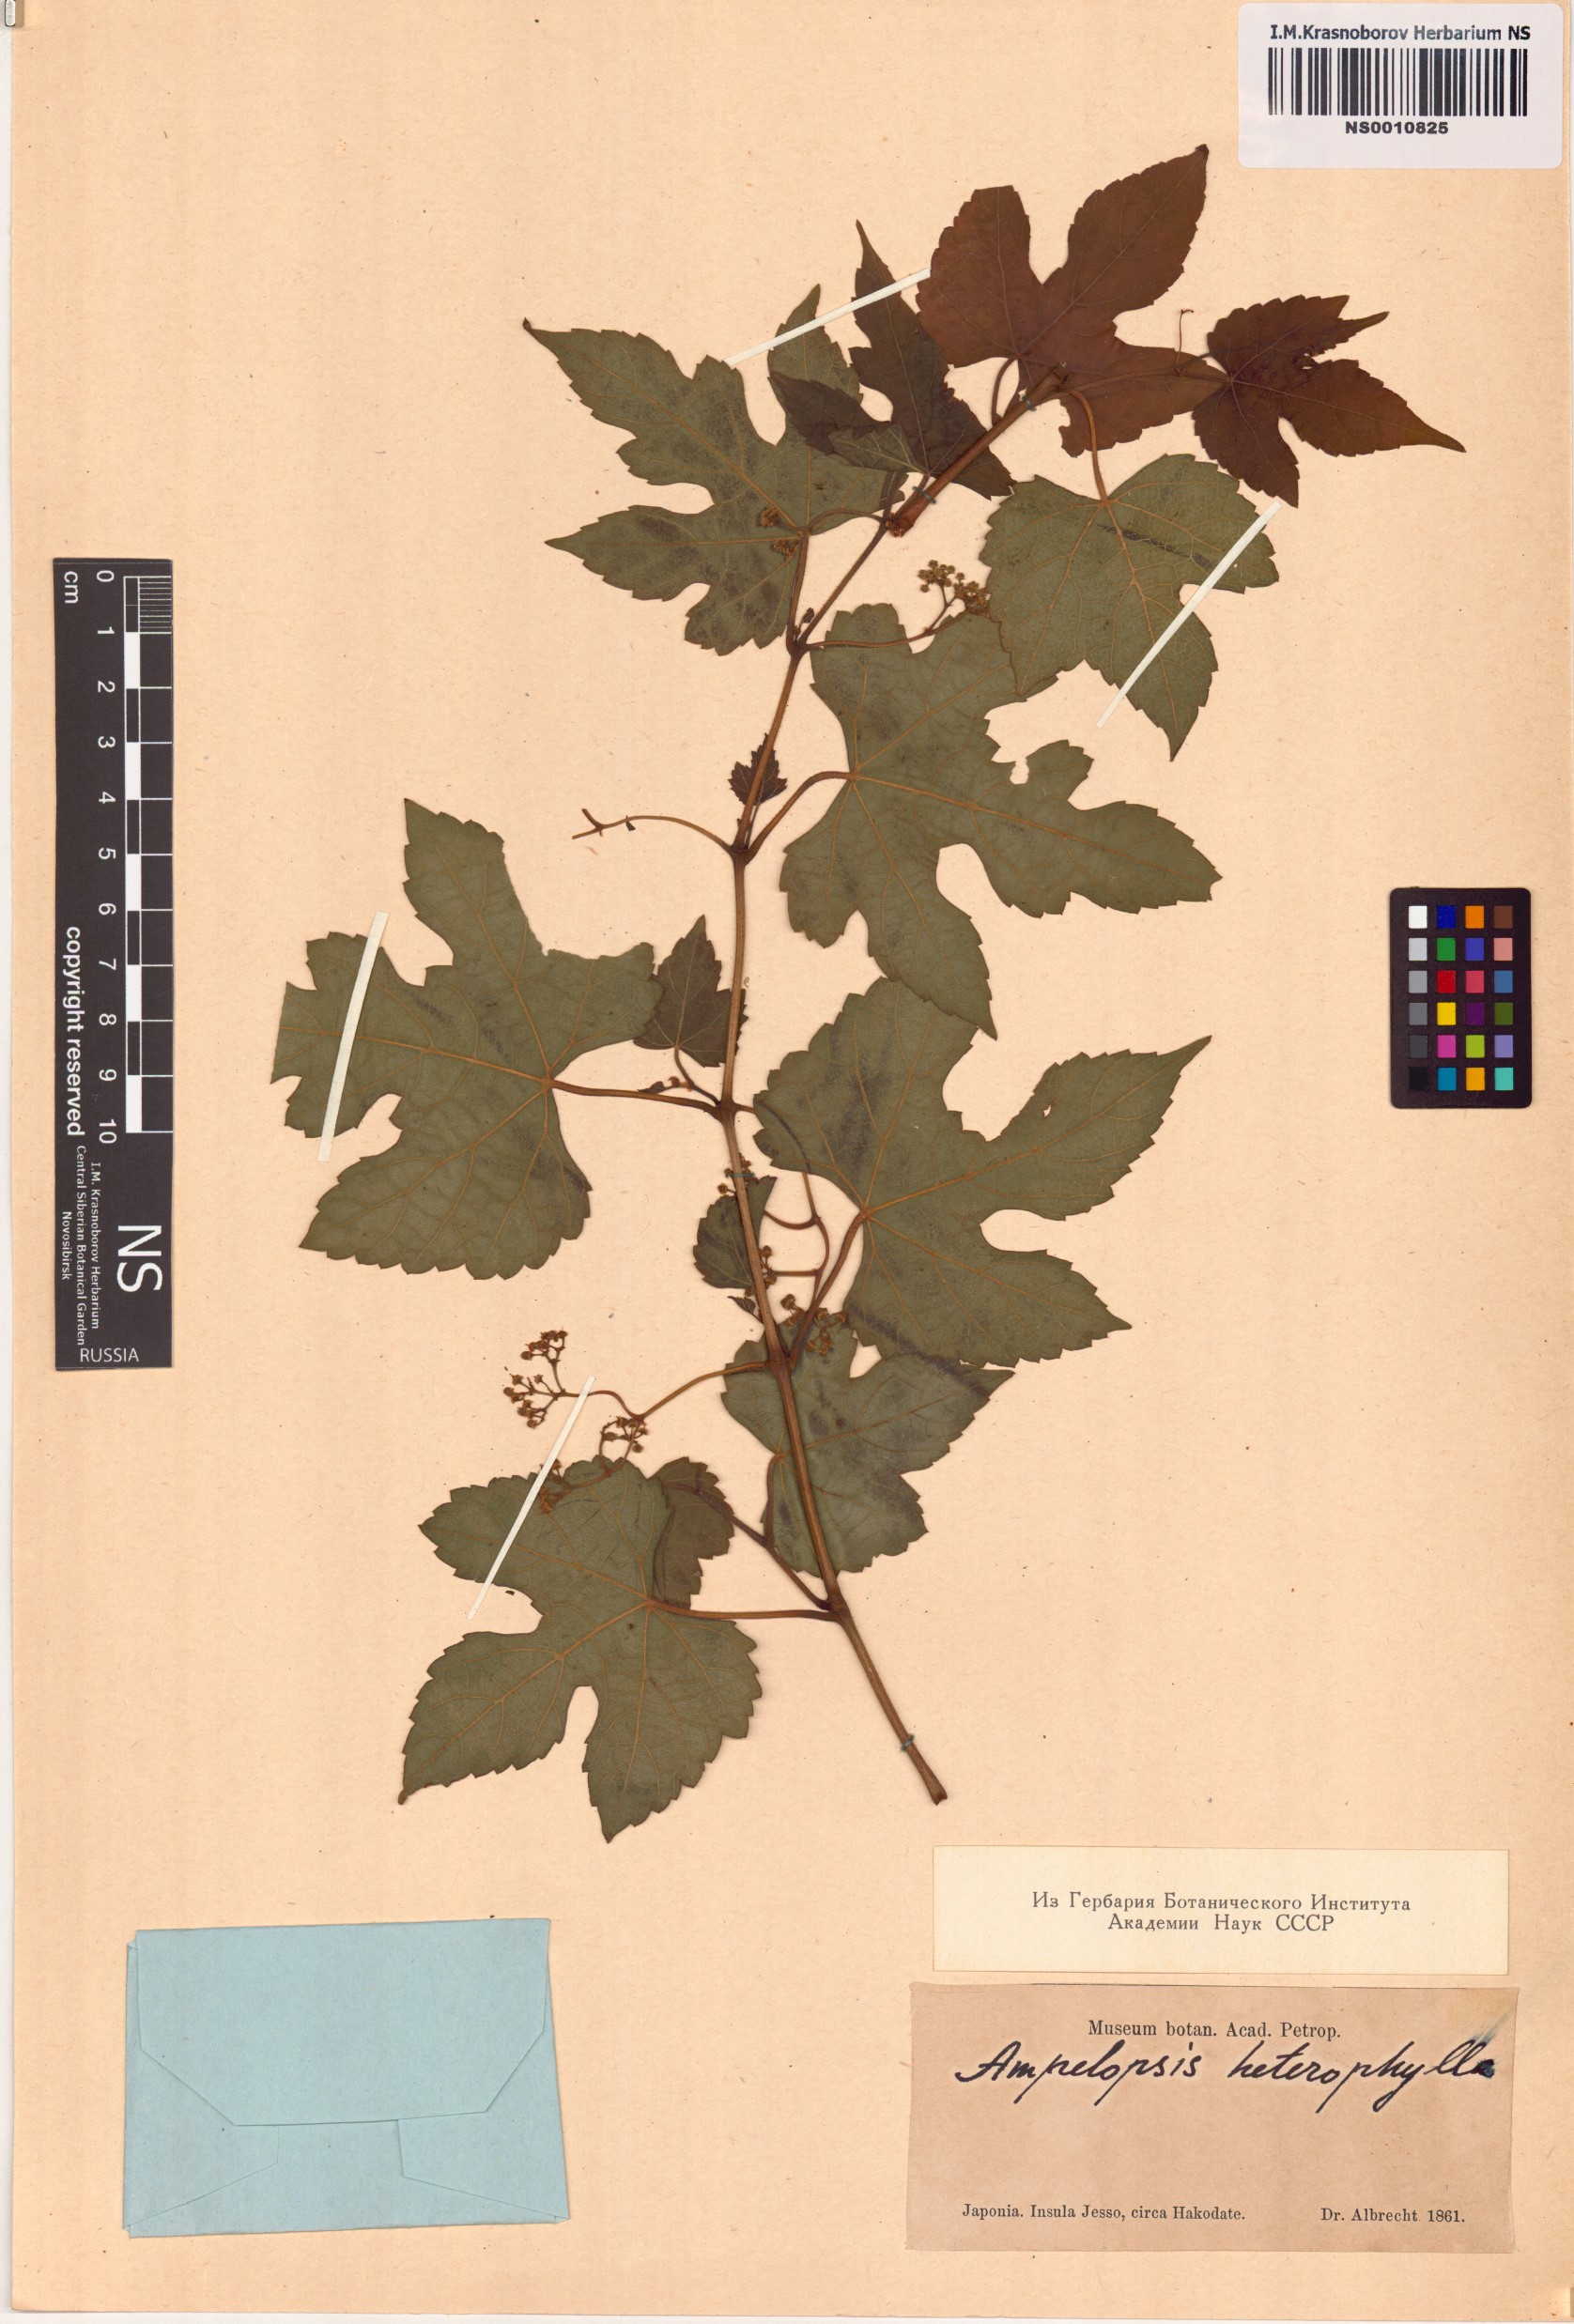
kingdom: Plantae
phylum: Tracheophyta
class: Magnoliopsida
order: Vitales
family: Vitaceae
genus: Ampelopsis
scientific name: Ampelopsis glandulosa
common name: Amur peppervine
